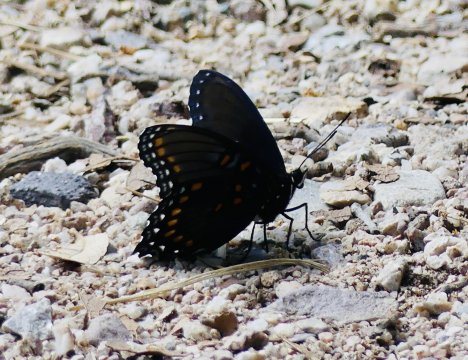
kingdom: Animalia
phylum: Arthropoda
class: Insecta
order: Lepidoptera
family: Nymphalidae
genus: Limenitis
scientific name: Limenitis arthemis
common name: Red-spotted Admiral
